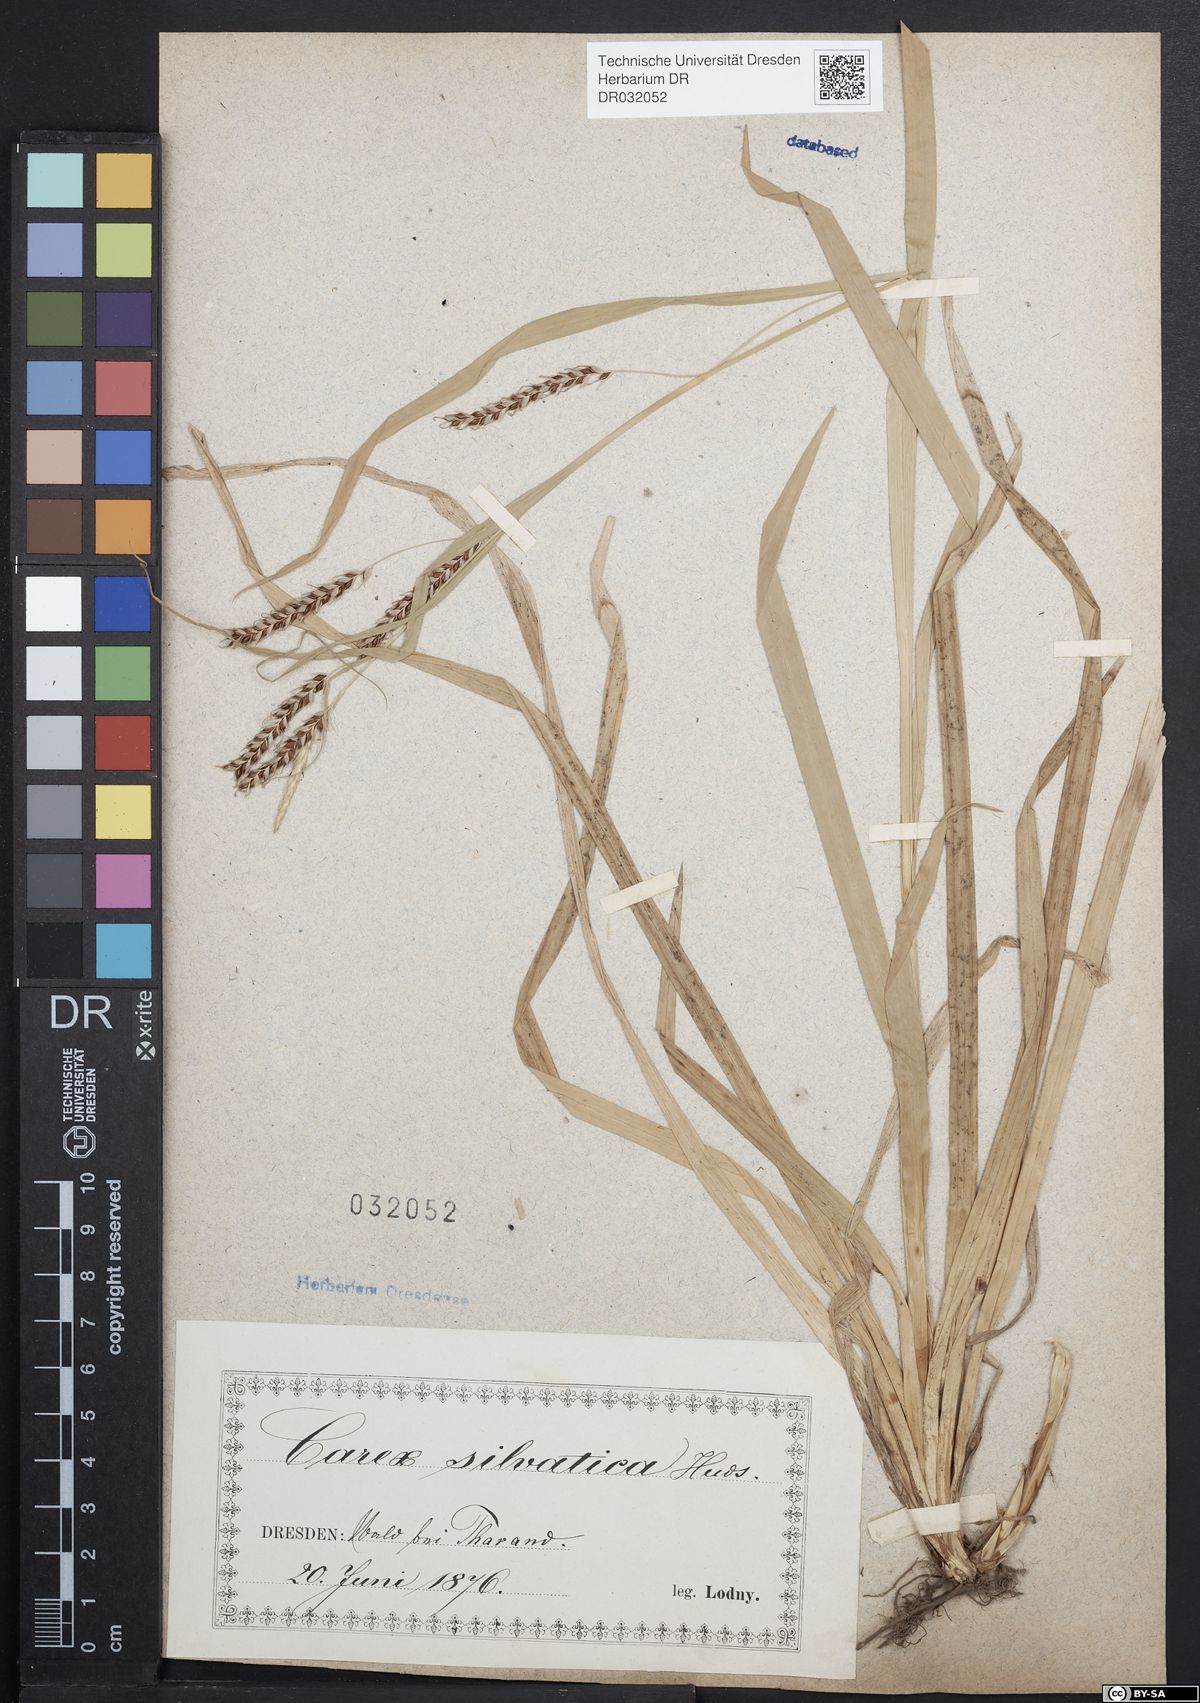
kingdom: Plantae
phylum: Tracheophyta
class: Liliopsida
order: Poales
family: Cyperaceae
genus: Carex
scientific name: Carex sylvatica
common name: Wood-sedge
